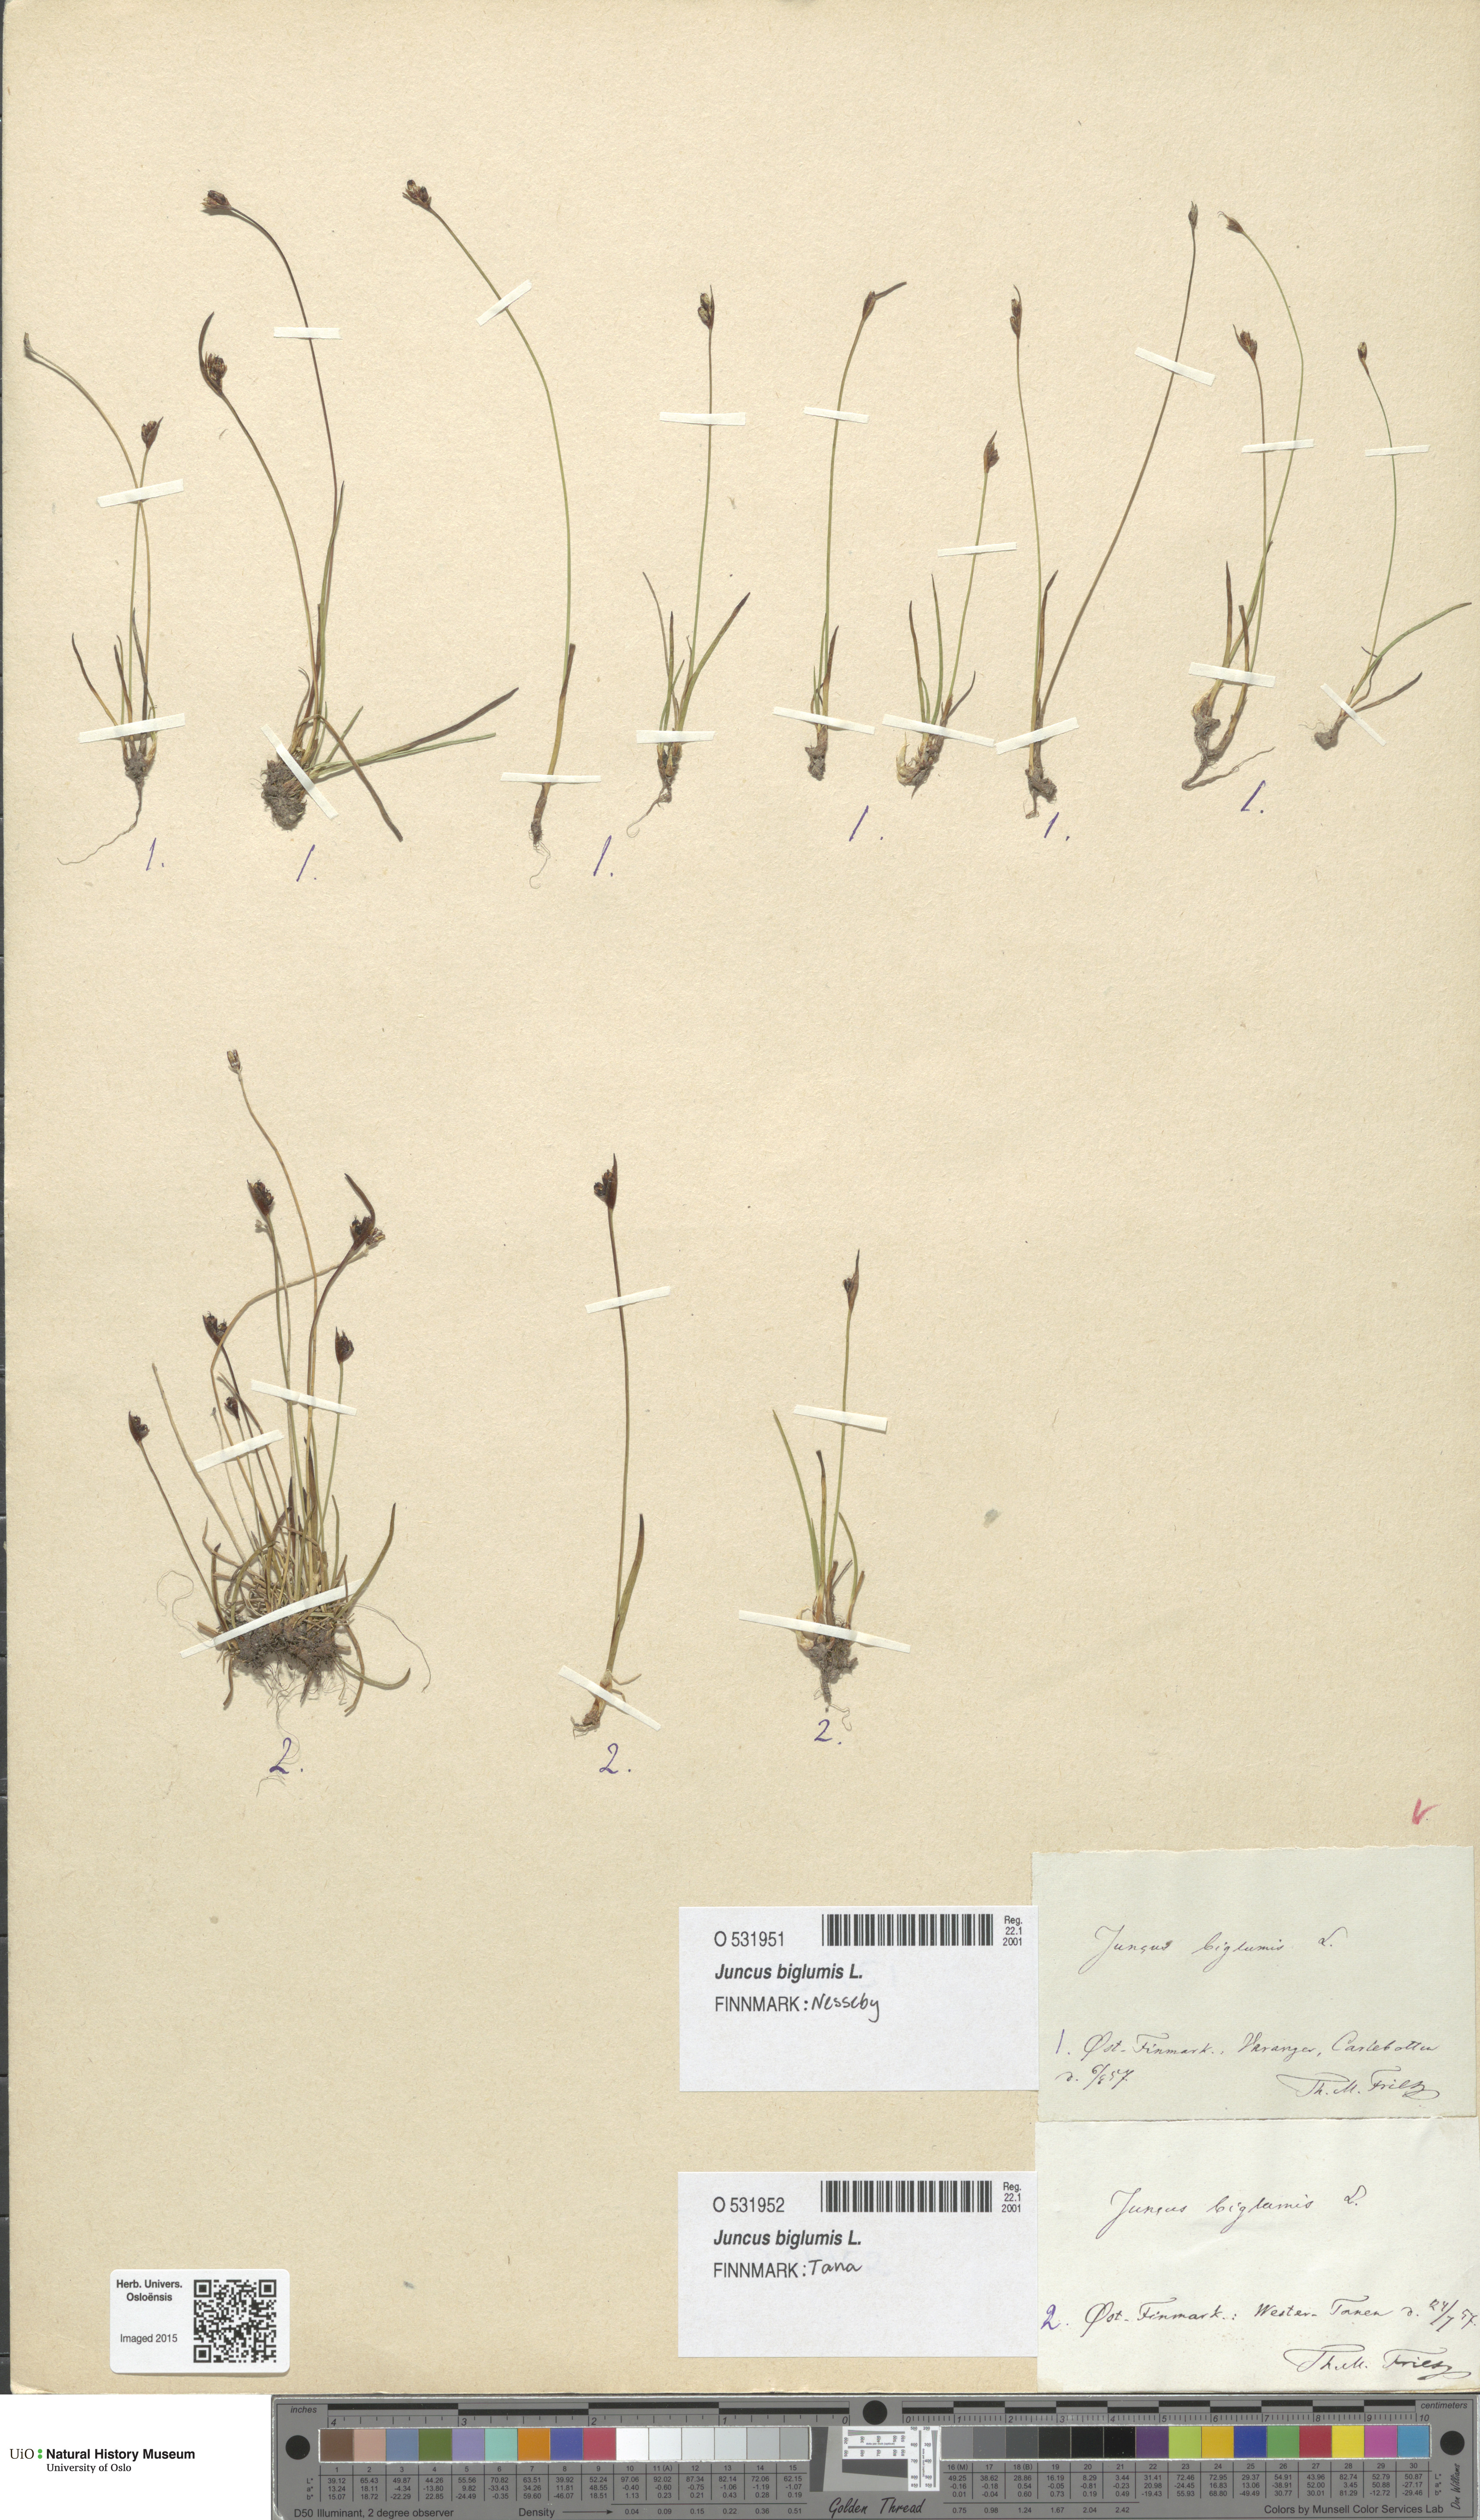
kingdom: Plantae
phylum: Tracheophyta
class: Liliopsida
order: Poales
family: Juncaceae
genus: Juncus
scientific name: Juncus biglumis
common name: Two-flowered rush
